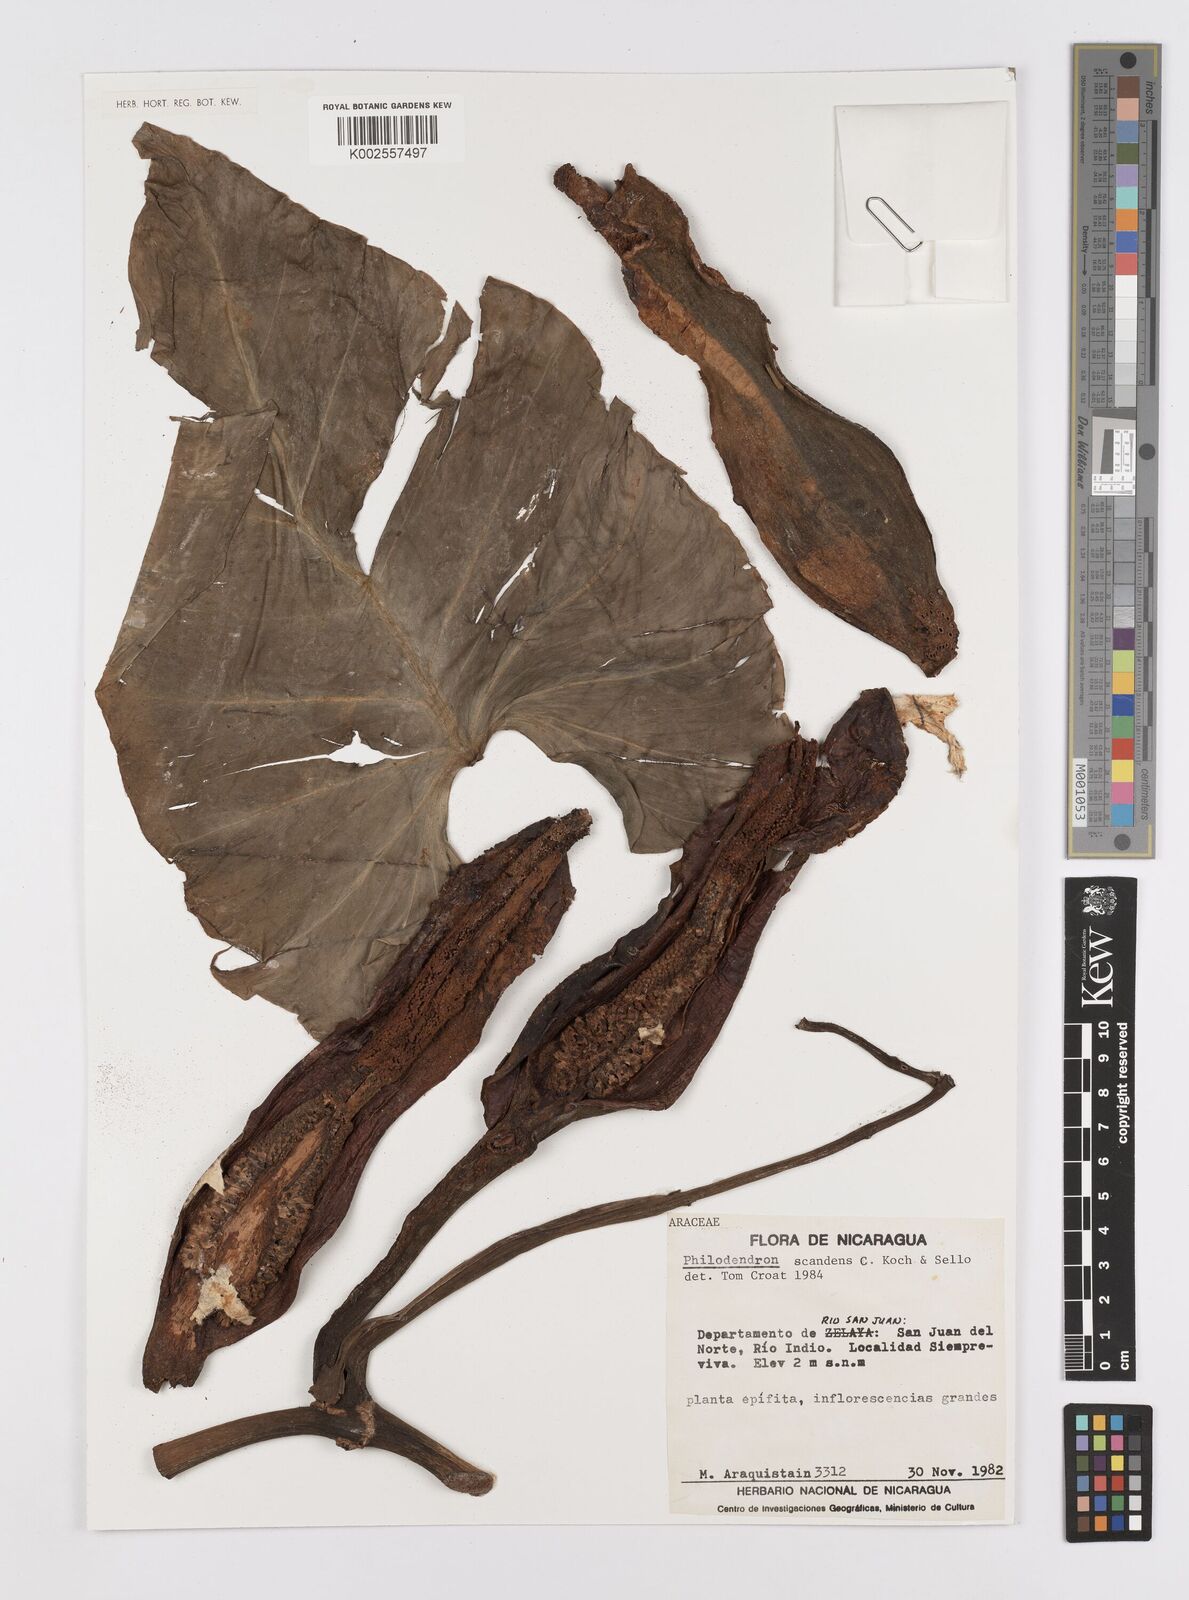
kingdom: Plantae
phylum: Tracheophyta
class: Liliopsida
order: Alismatales
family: Araceae
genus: Philodendron
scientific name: Philodendron hederaceum
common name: Vilevine
